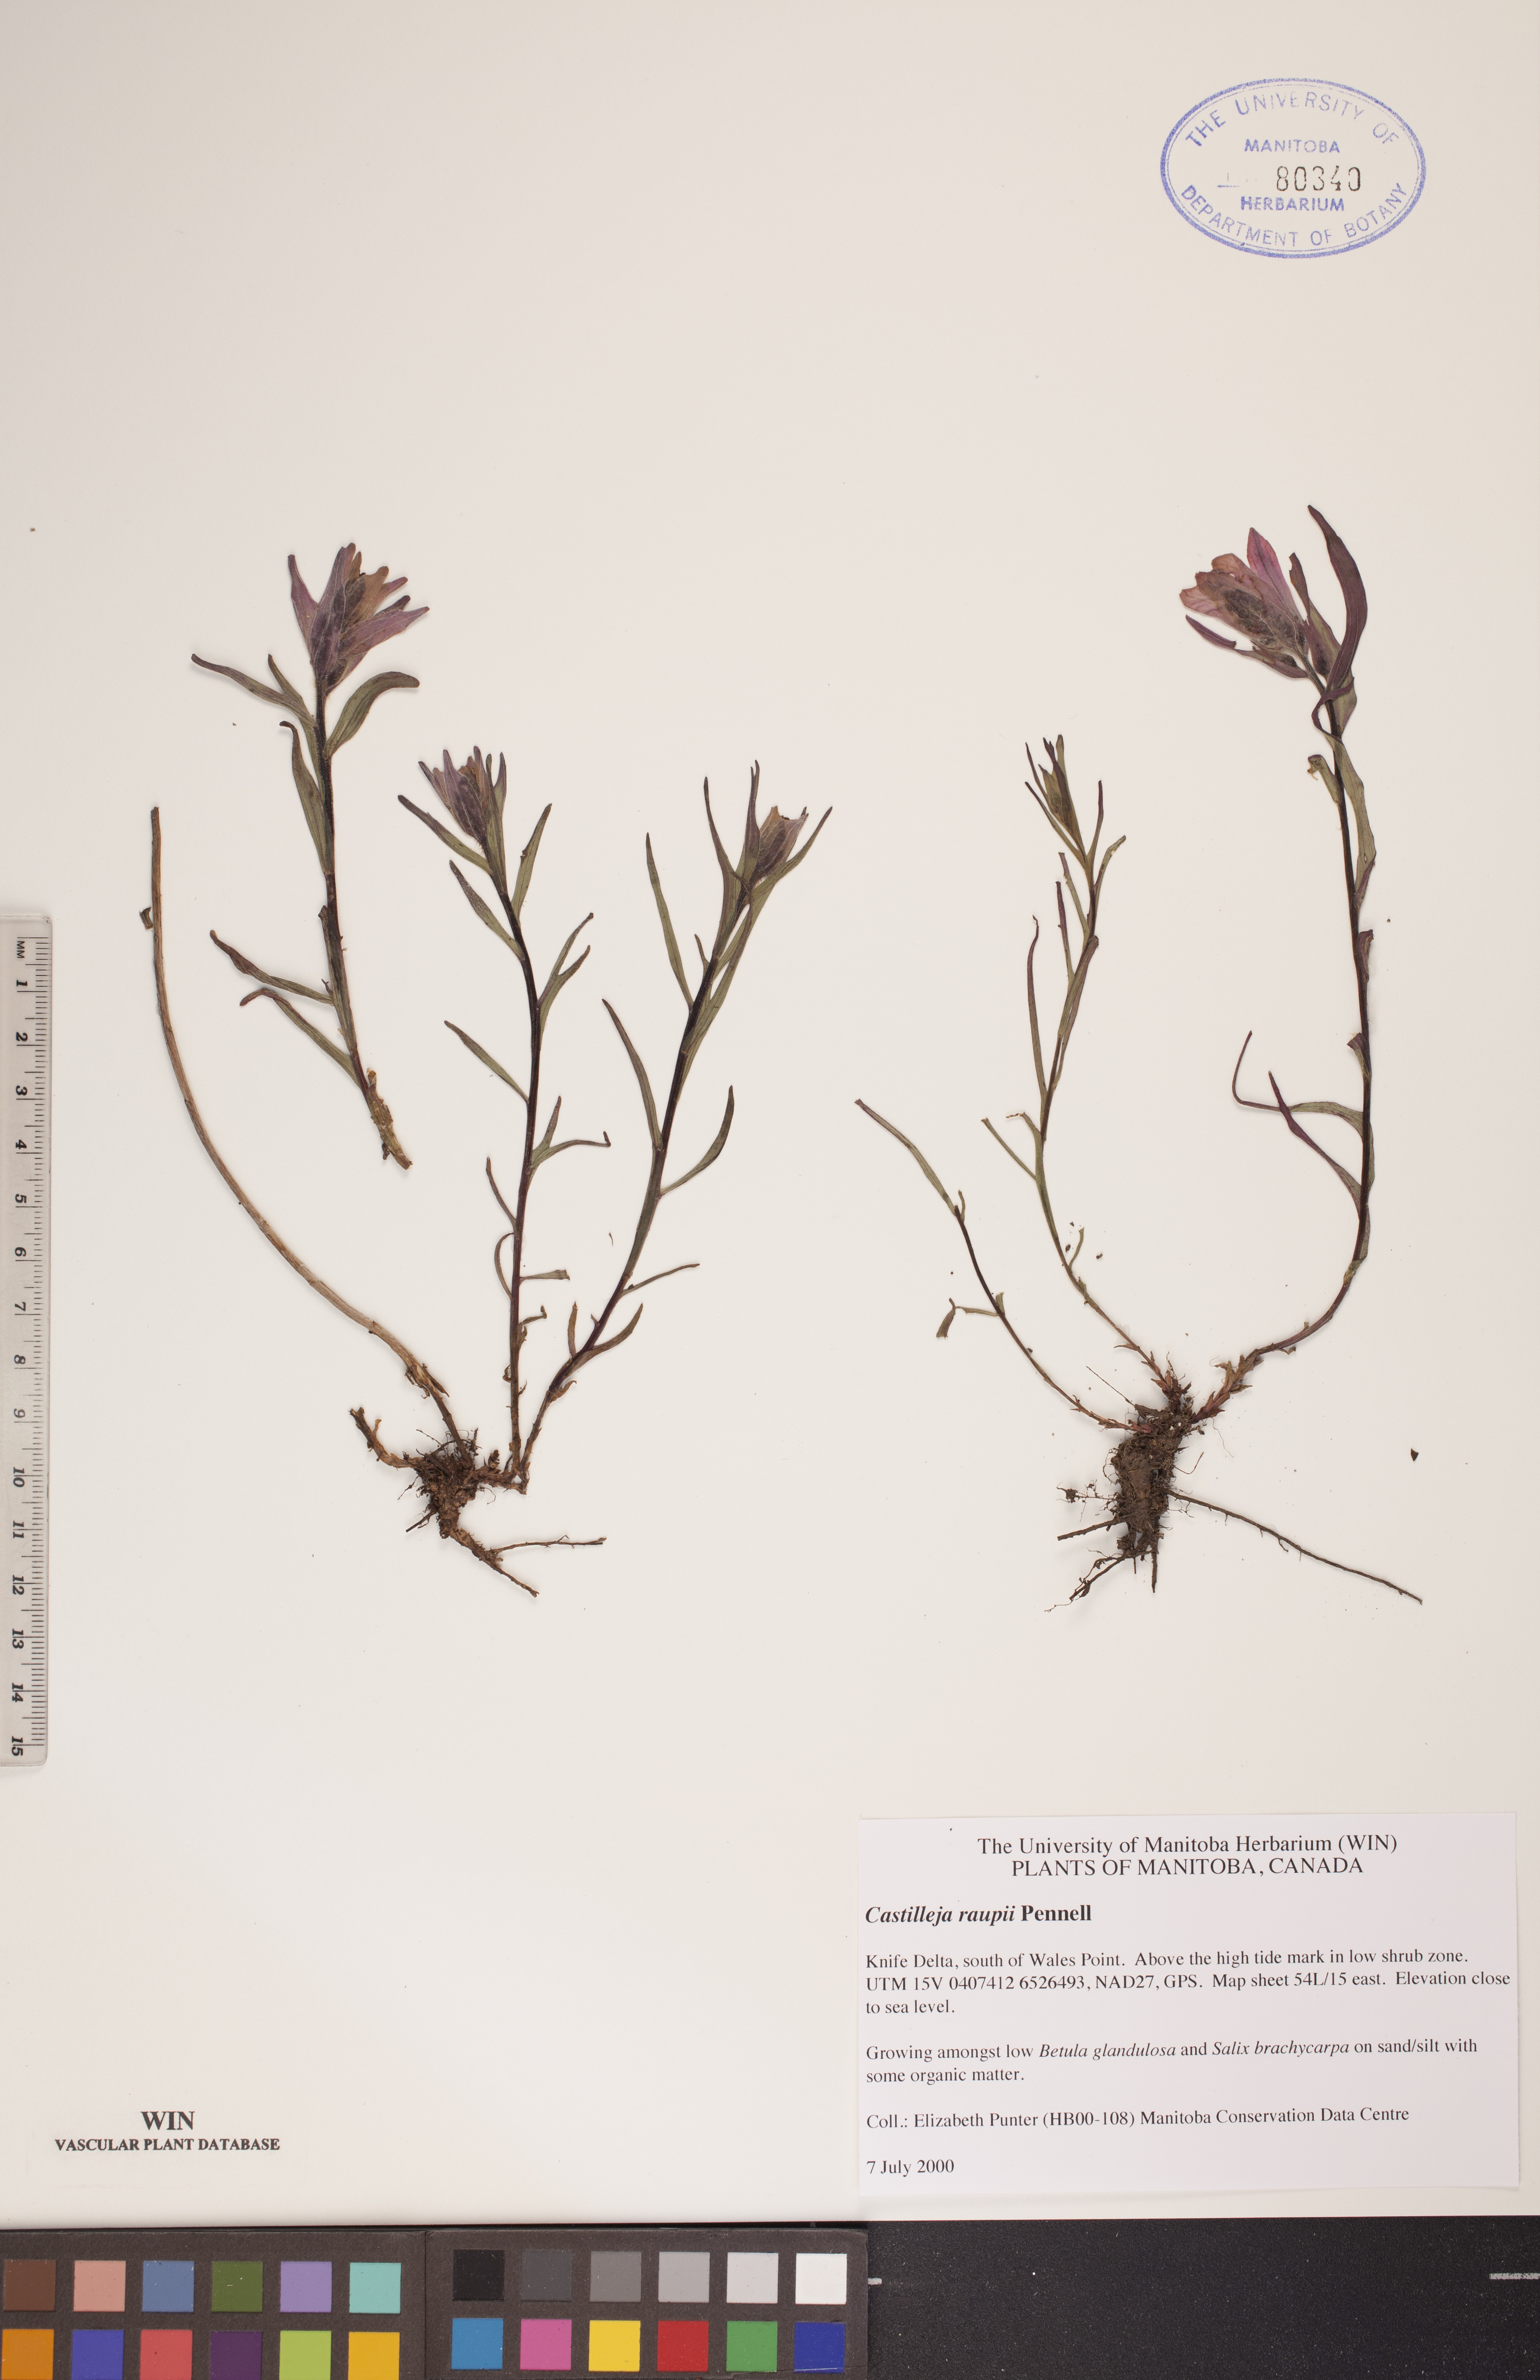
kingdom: Plantae
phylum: Tracheophyta
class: Magnoliopsida
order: Lamiales
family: Orobanchaceae
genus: Castilleja
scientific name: Castilleja raupii
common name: Raup's paintbrush
